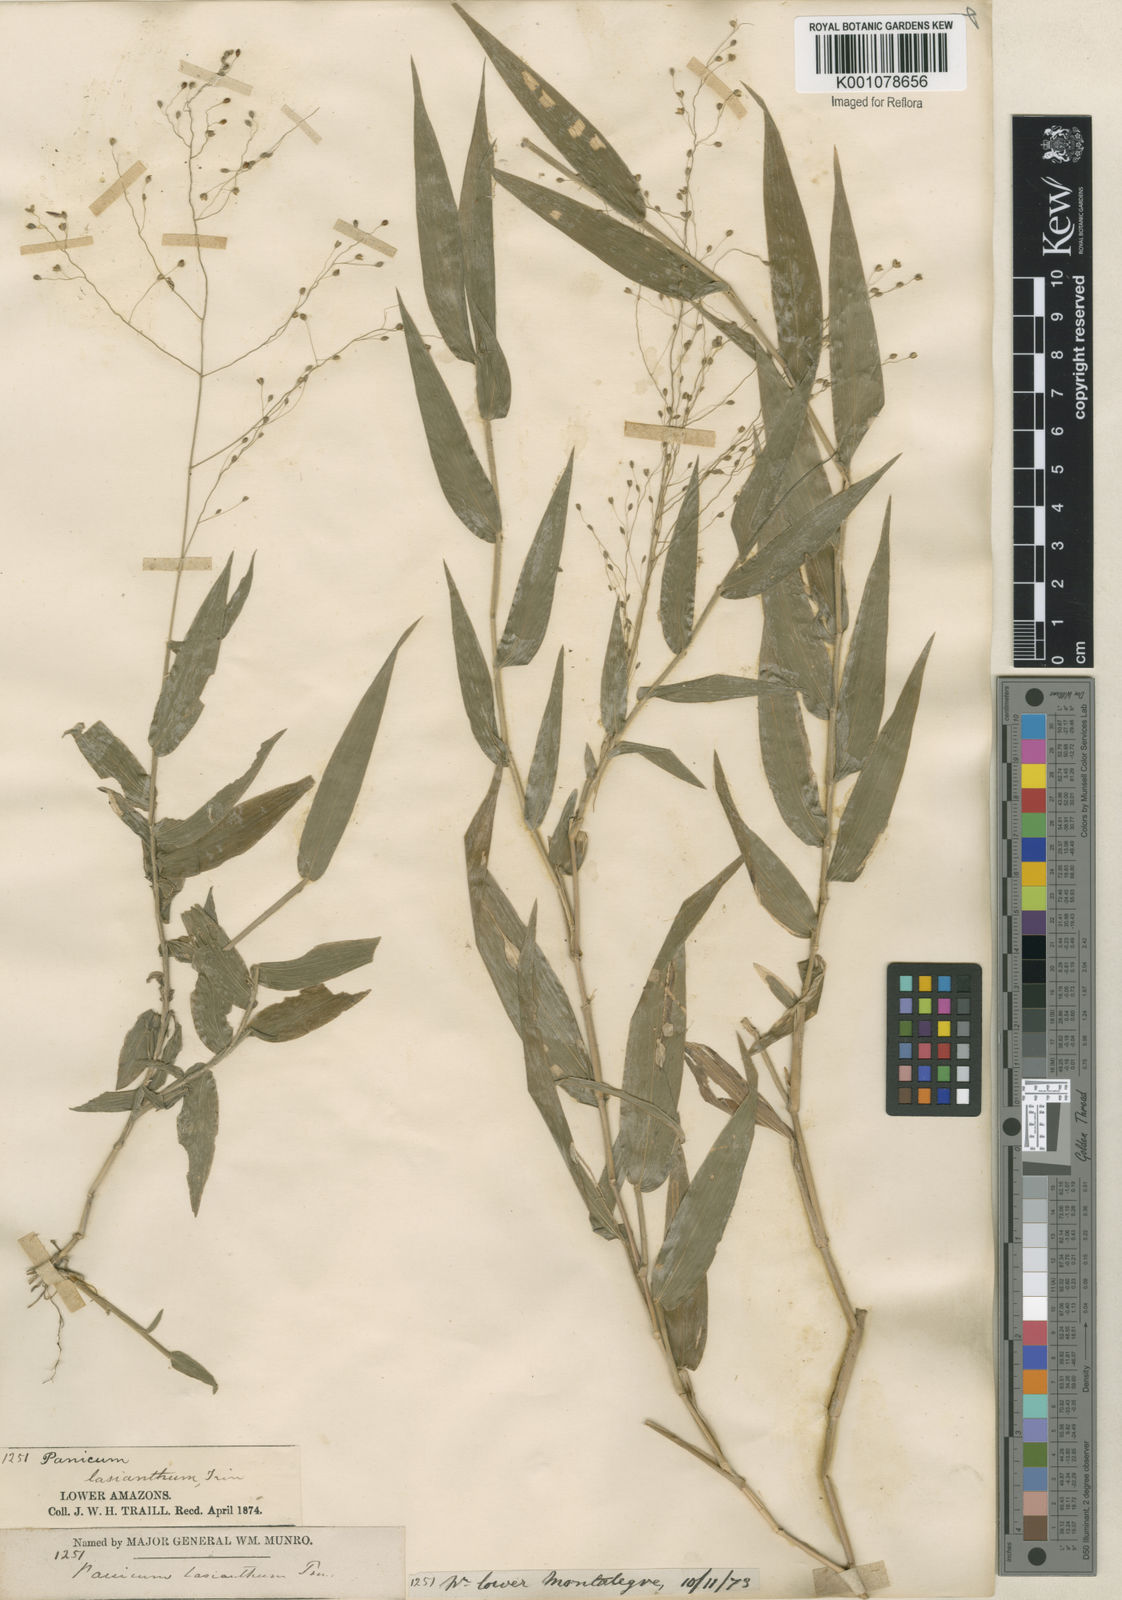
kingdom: Plantae
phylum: Tracheophyta
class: Liliopsida
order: Poales
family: Poaceae
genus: Panicum
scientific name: Panicum millegrana
